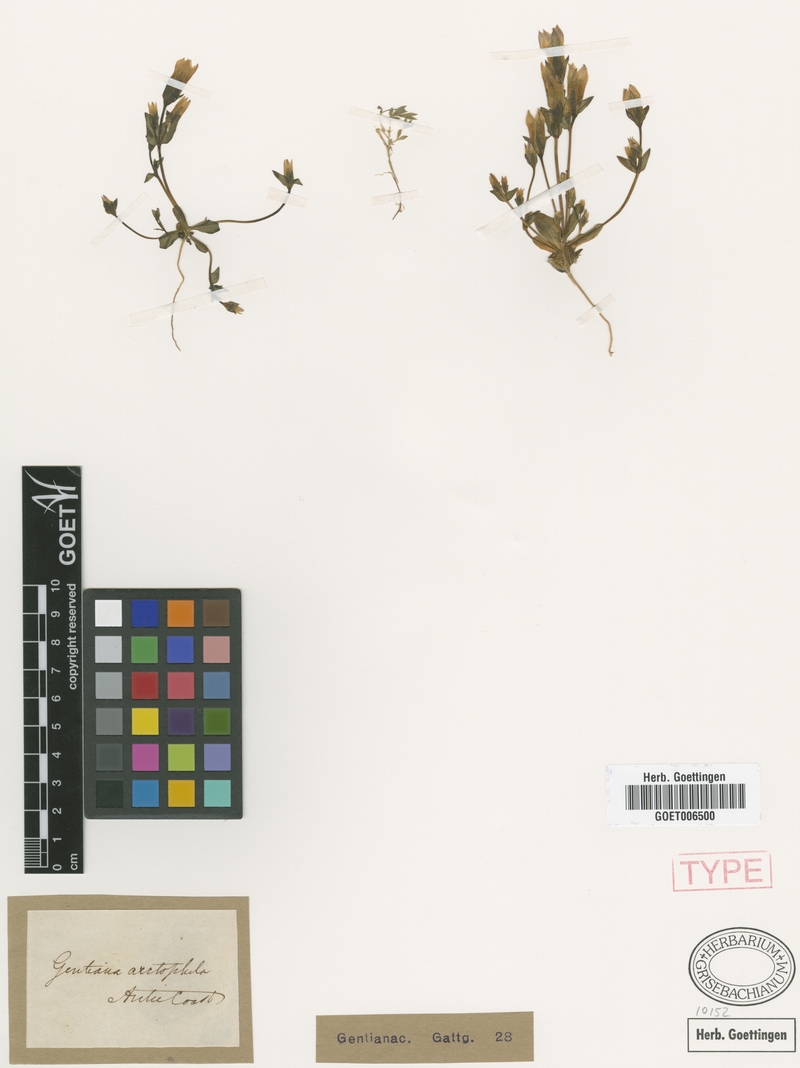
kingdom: Plantae
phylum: Tracheophyta
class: Magnoliopsida
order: Gentianales
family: Gentianaceae
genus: Gentianella
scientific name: Gentianella propinqua
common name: Four-parted dwarf-gentian
